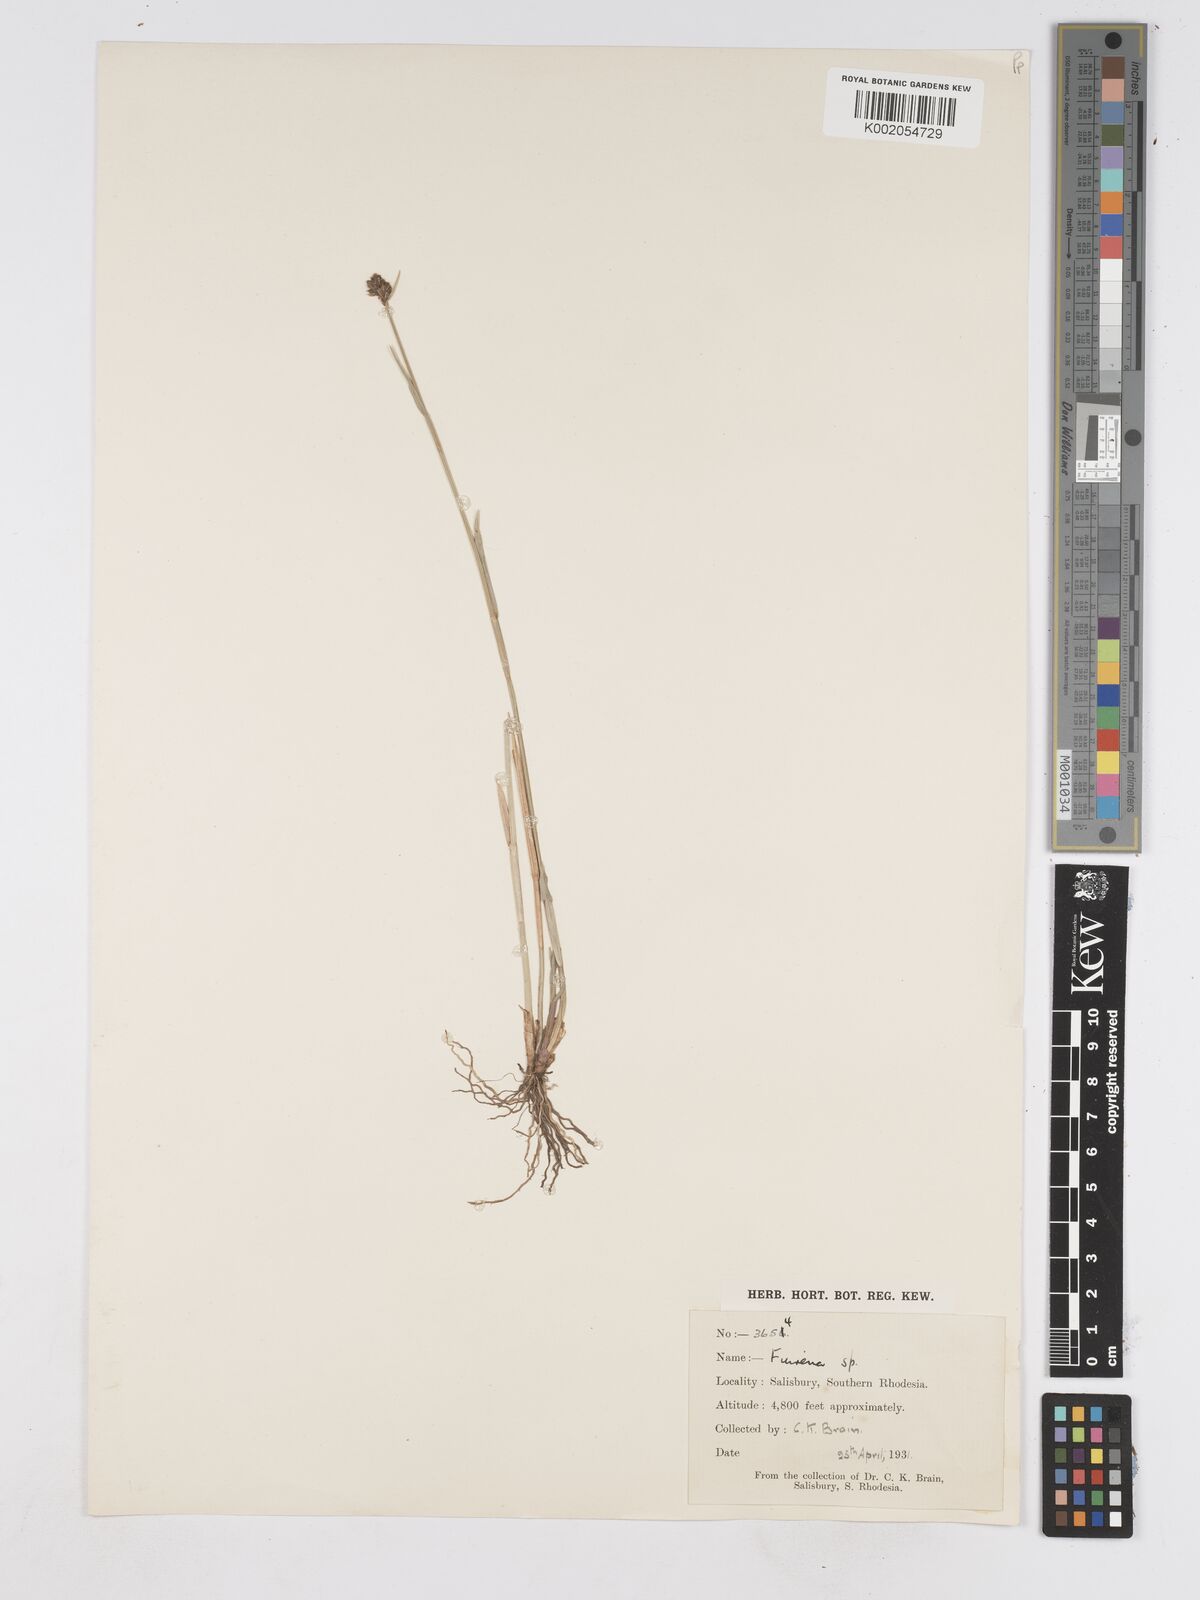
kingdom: Plantae
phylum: Tracheophyta
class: Liliopsida
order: Poales
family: Cyperaceae
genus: Fuirena
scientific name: Fuirena stricta
